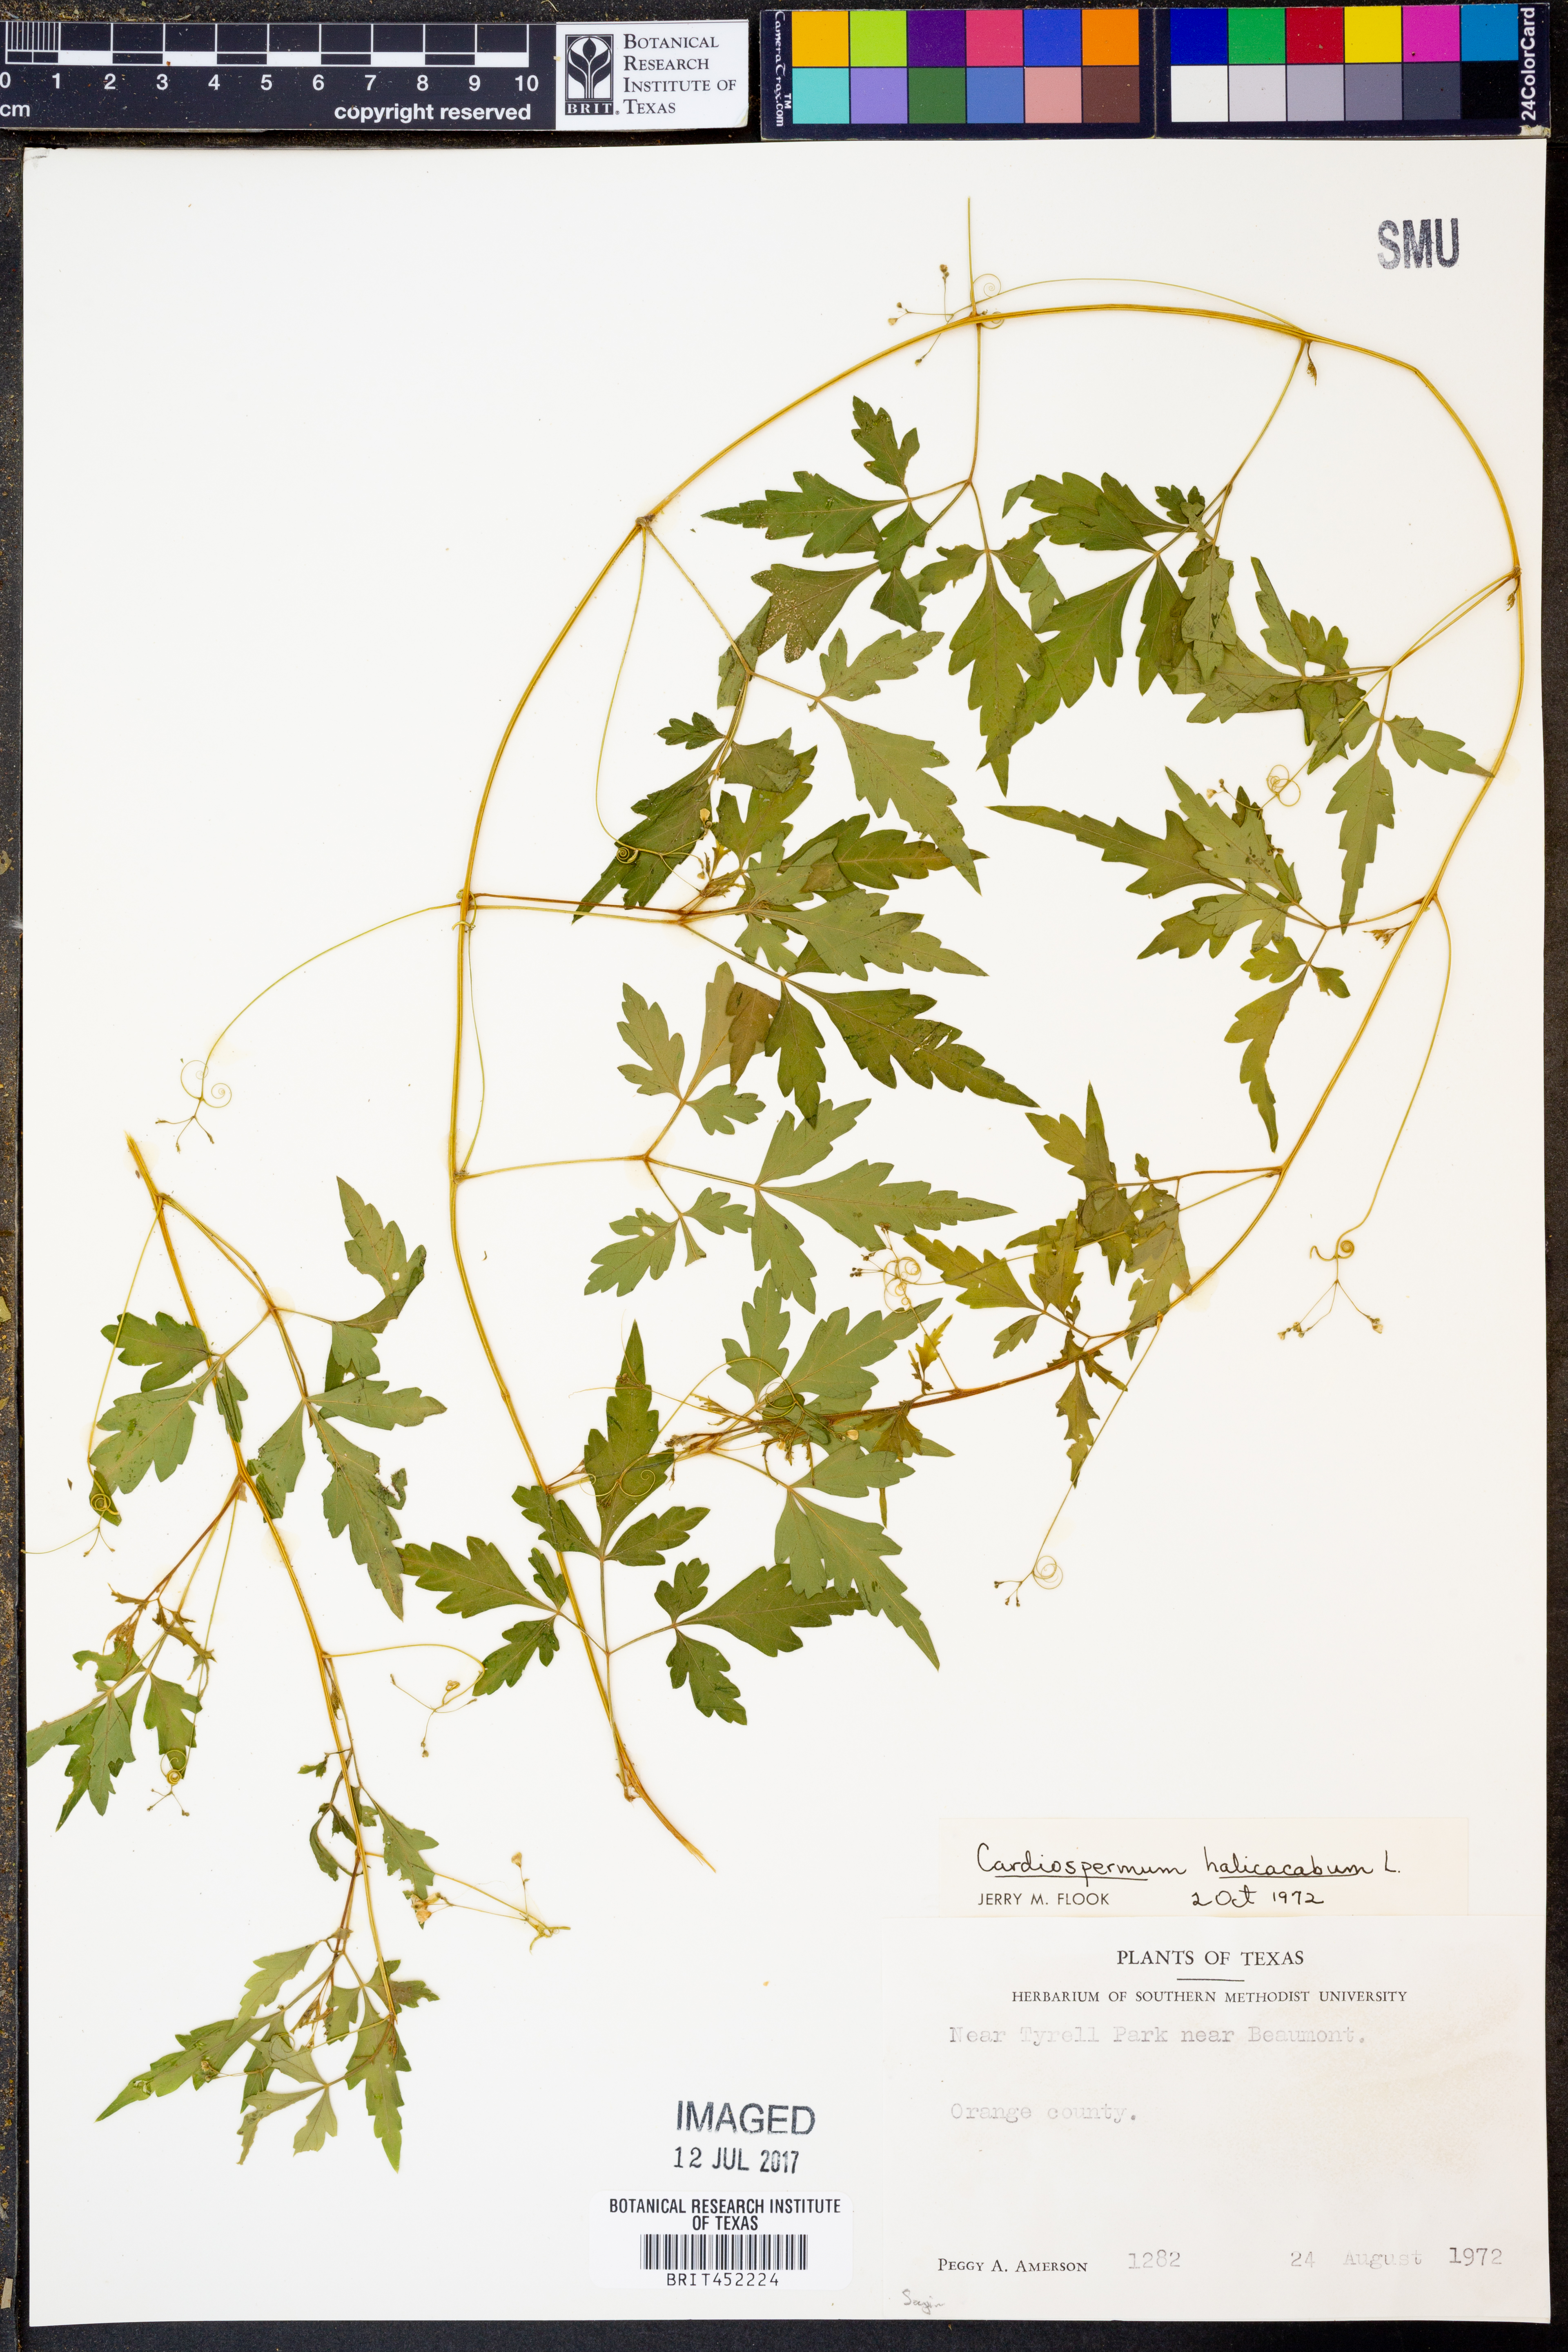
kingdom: Plantae
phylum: Tracheophyta
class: Magnoliopsida
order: Sapindales
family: Sapindaceae
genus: Cardiospermum
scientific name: Cardiospermum halicacabum
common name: Balloon vine
